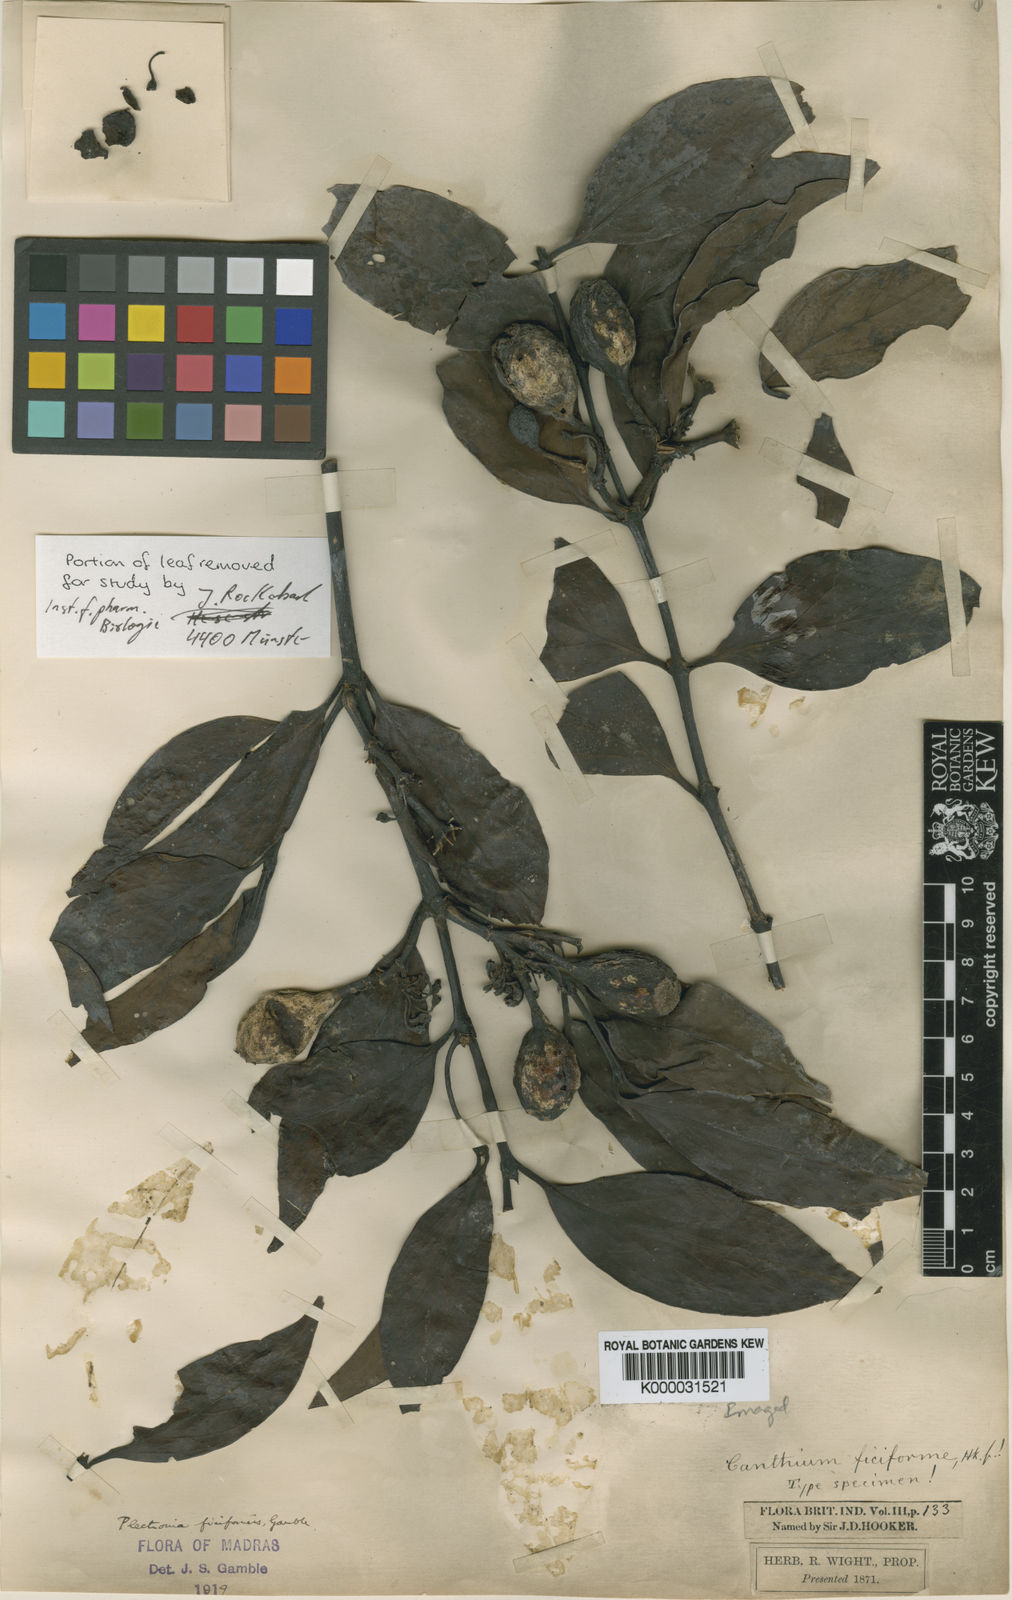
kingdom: Plantae
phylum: Tracheophyta
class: Magnoliopsida
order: Gentianales
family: Rubiaceae
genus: Psydrax
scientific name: Psydrax ficiformis
